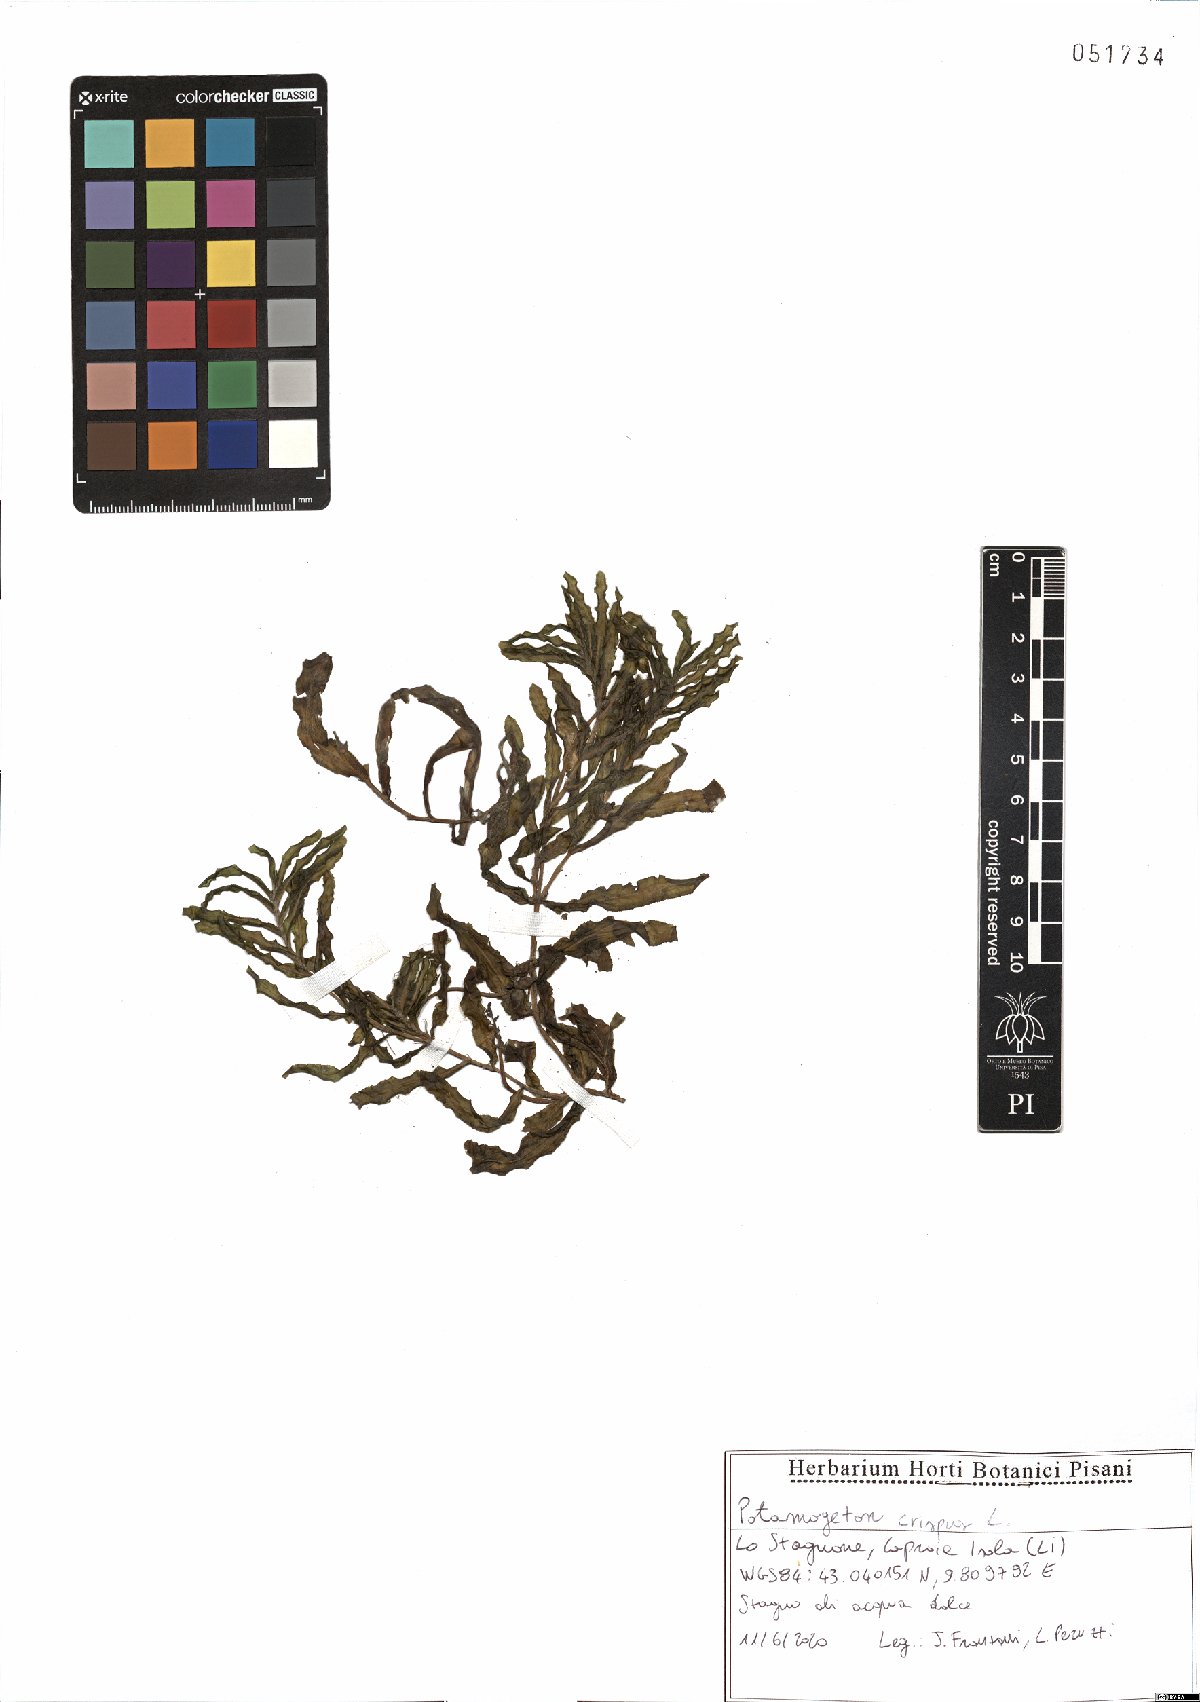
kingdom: Plantae
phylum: Tracheophyta
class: Liliopsida
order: Alismatales
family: Potamogetonaceae
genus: Potamogeton
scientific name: Potamogeton crispus
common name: Curled pondweed
